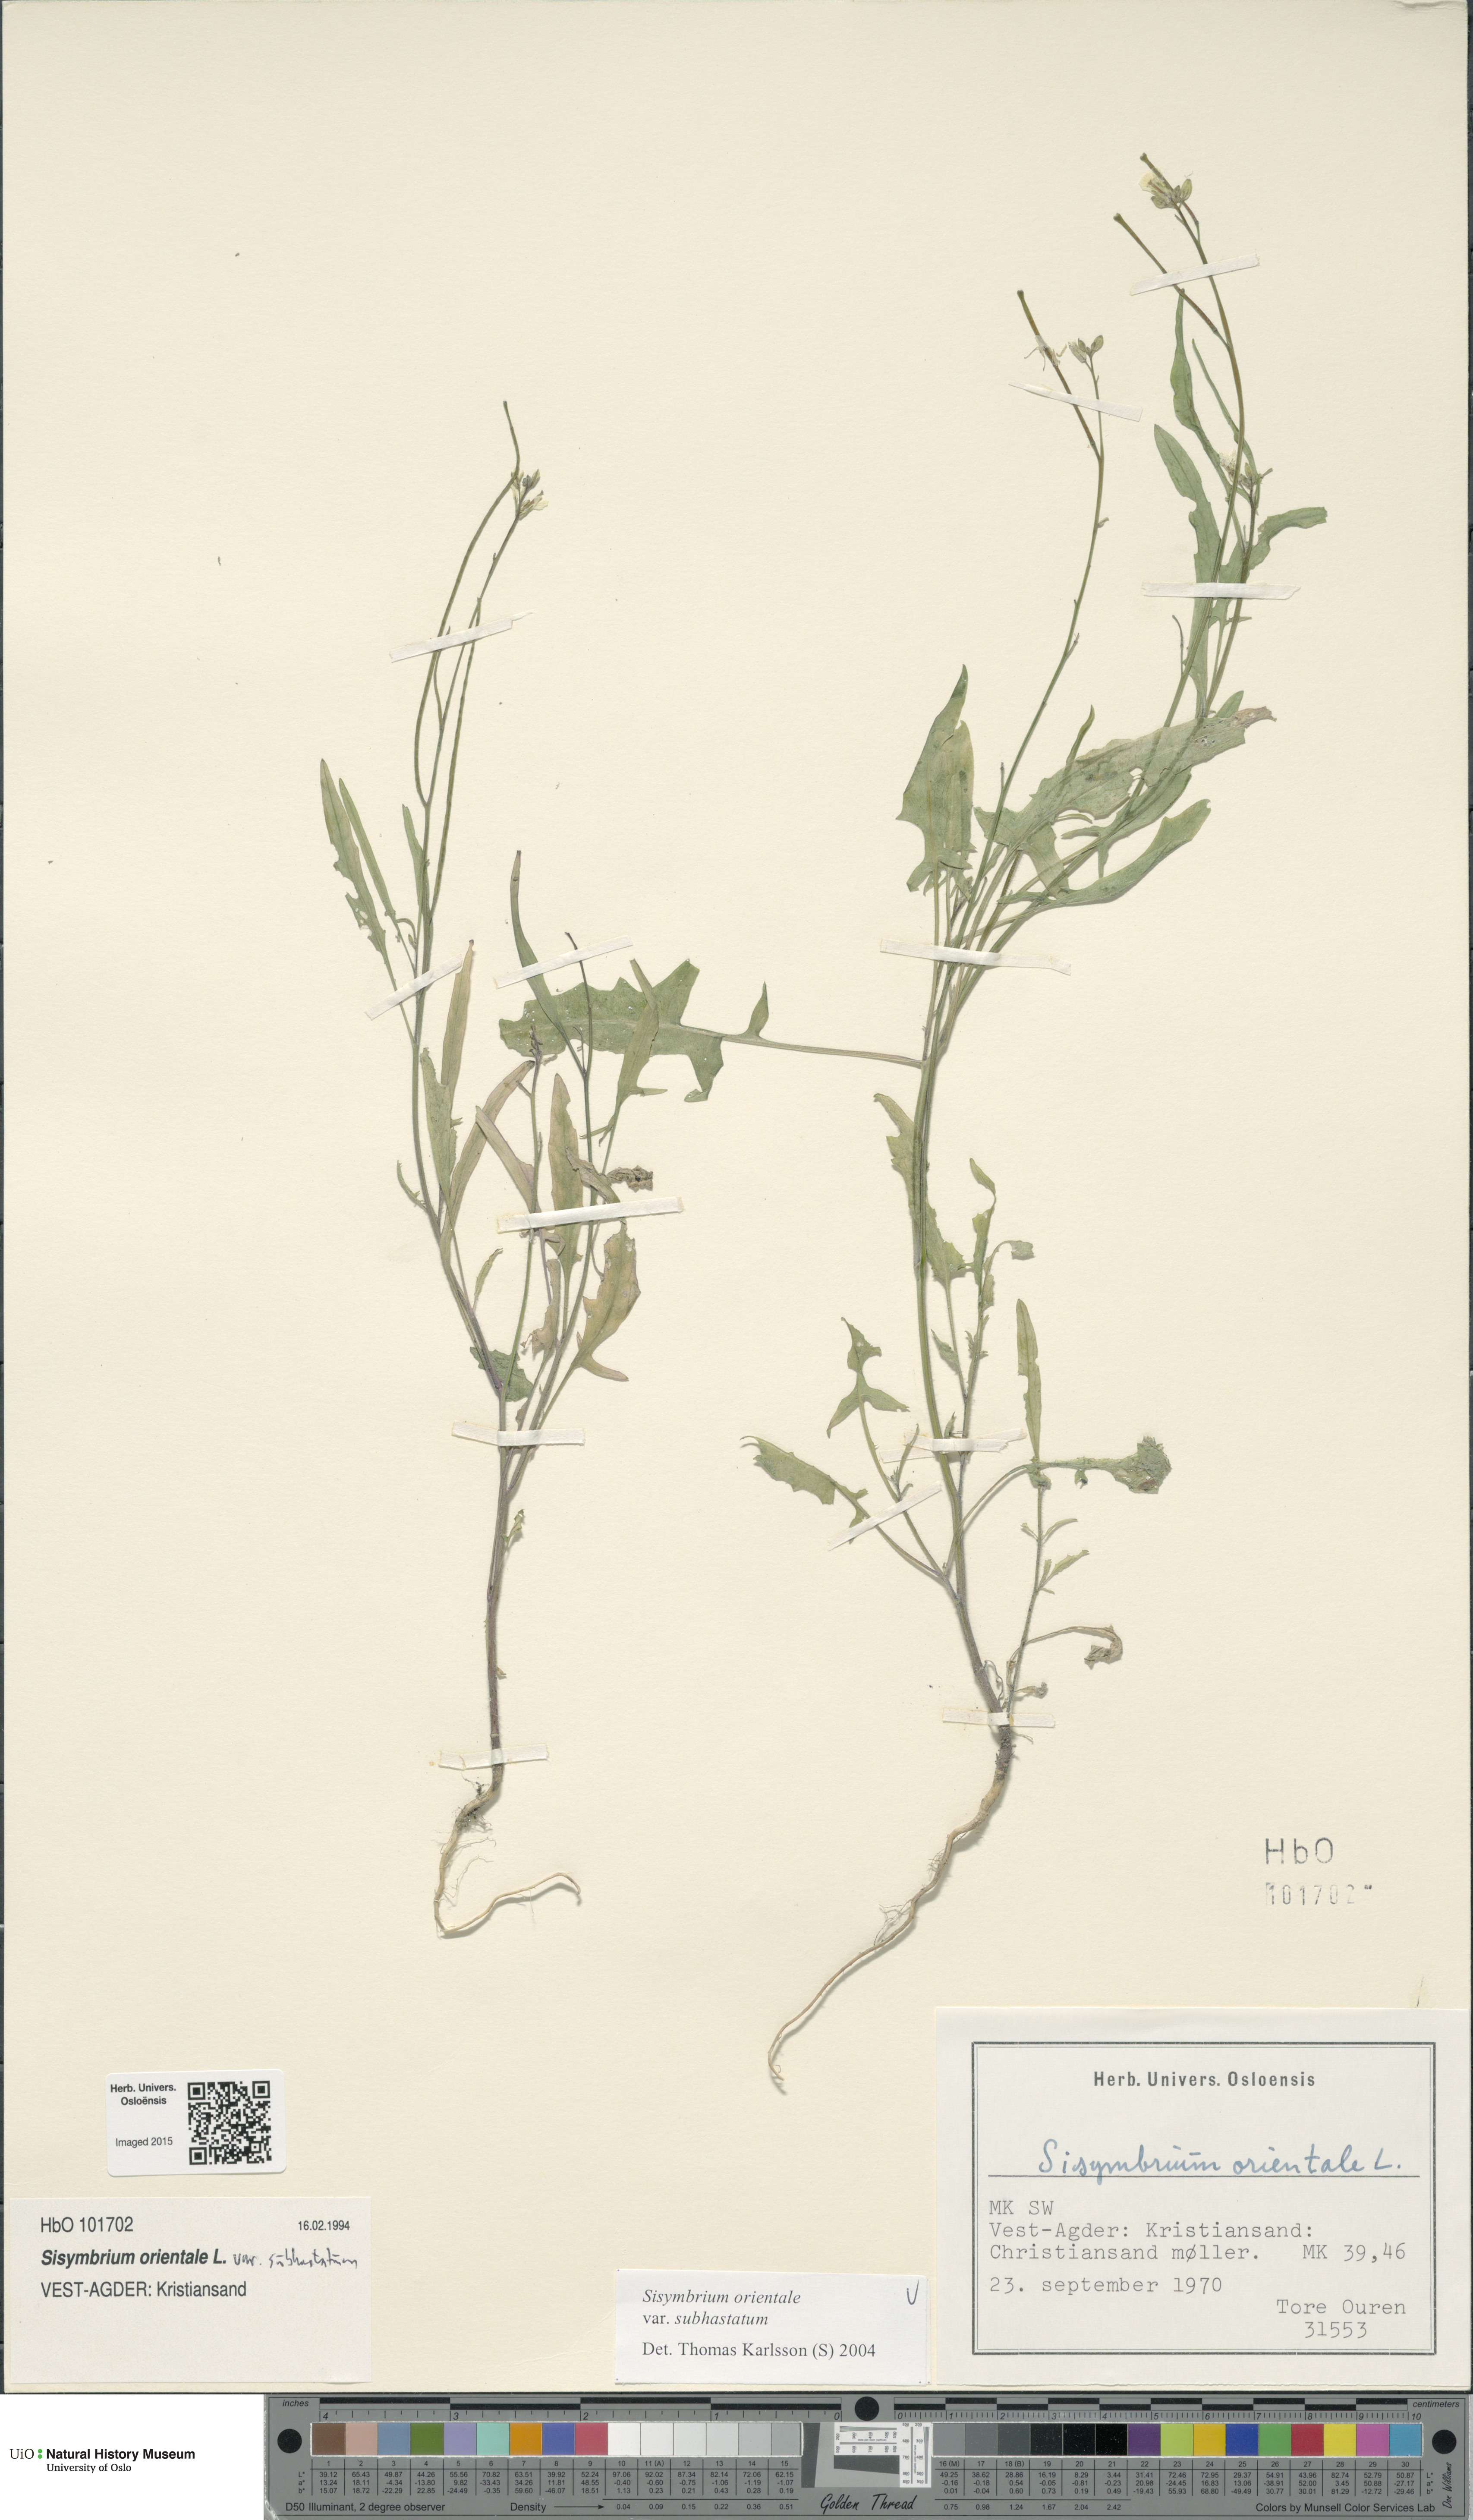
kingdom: Plantae
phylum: Tracheophyta
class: Magnoliopsida
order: Brassicales
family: Brassicaceae
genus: Sisymbrium
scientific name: Sisymbrium orientale
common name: Eastern rocket
